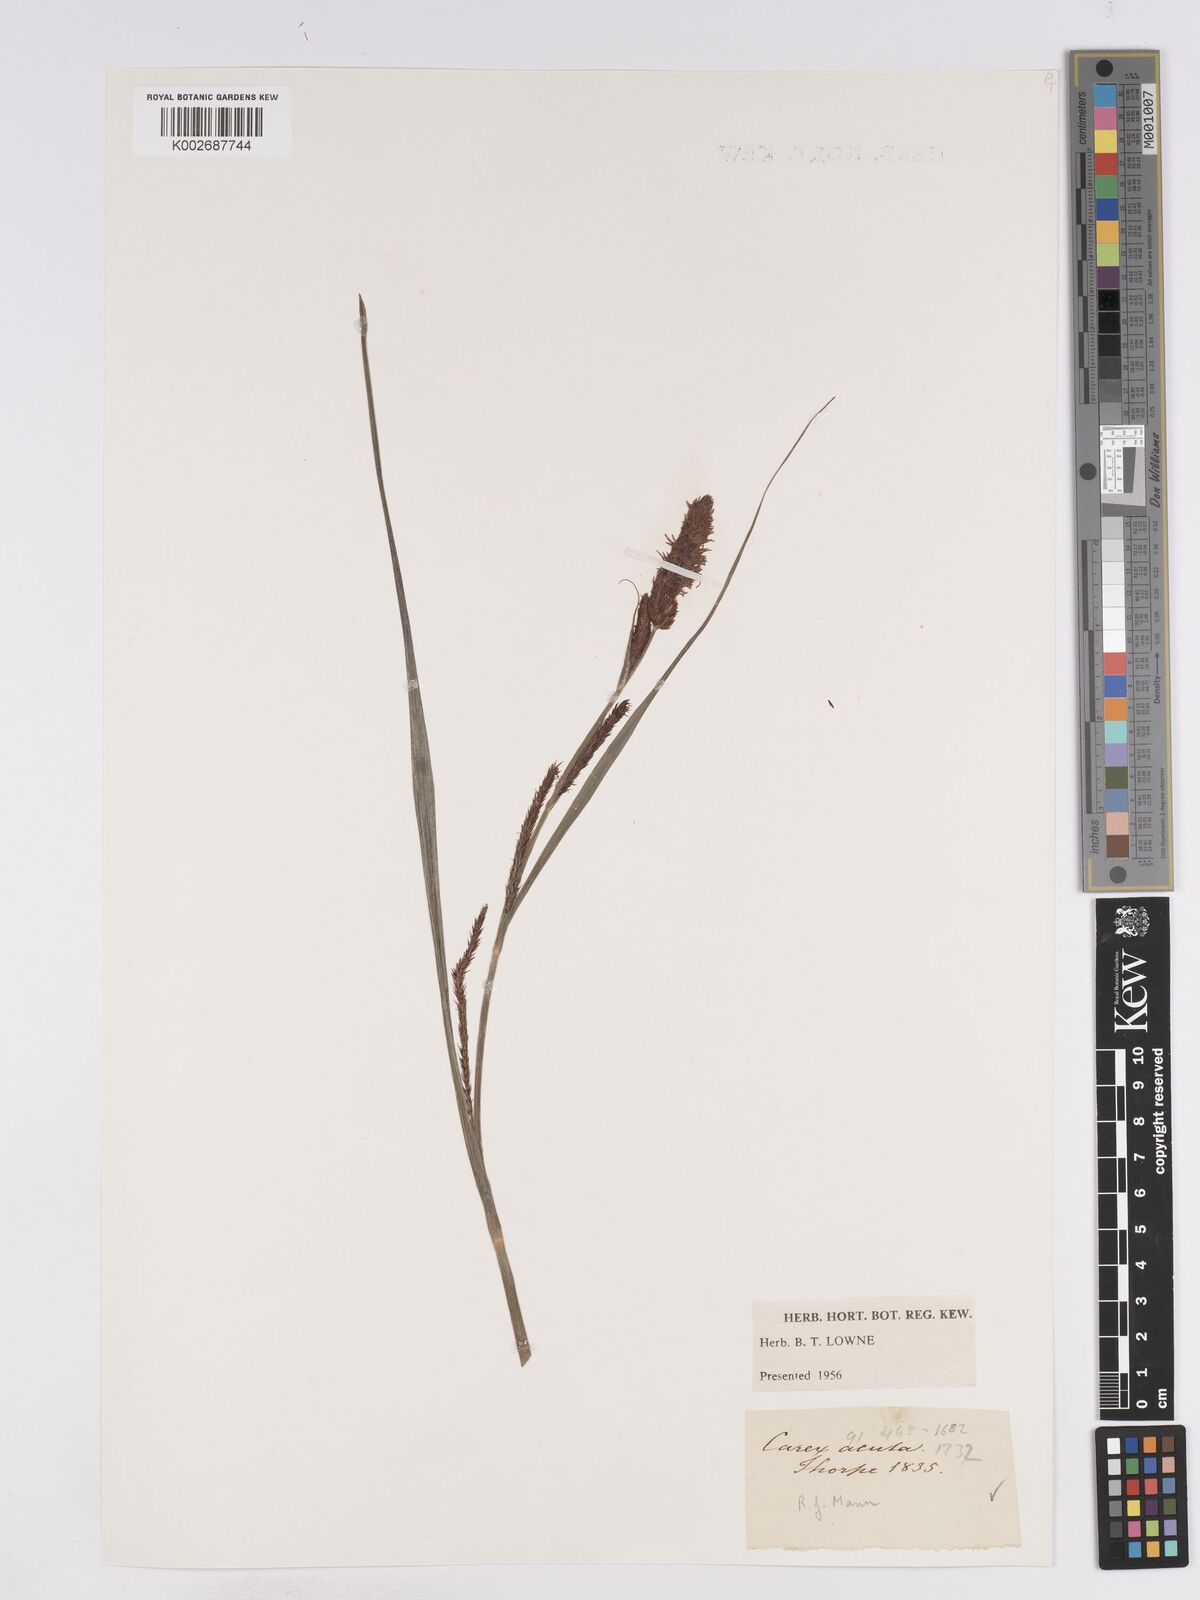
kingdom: Plantae
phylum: Tracheophyta
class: Liliopsida
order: Poales
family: Cyperaceae
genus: Carex
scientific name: Carex acuta
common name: Slender tufted-sedge
